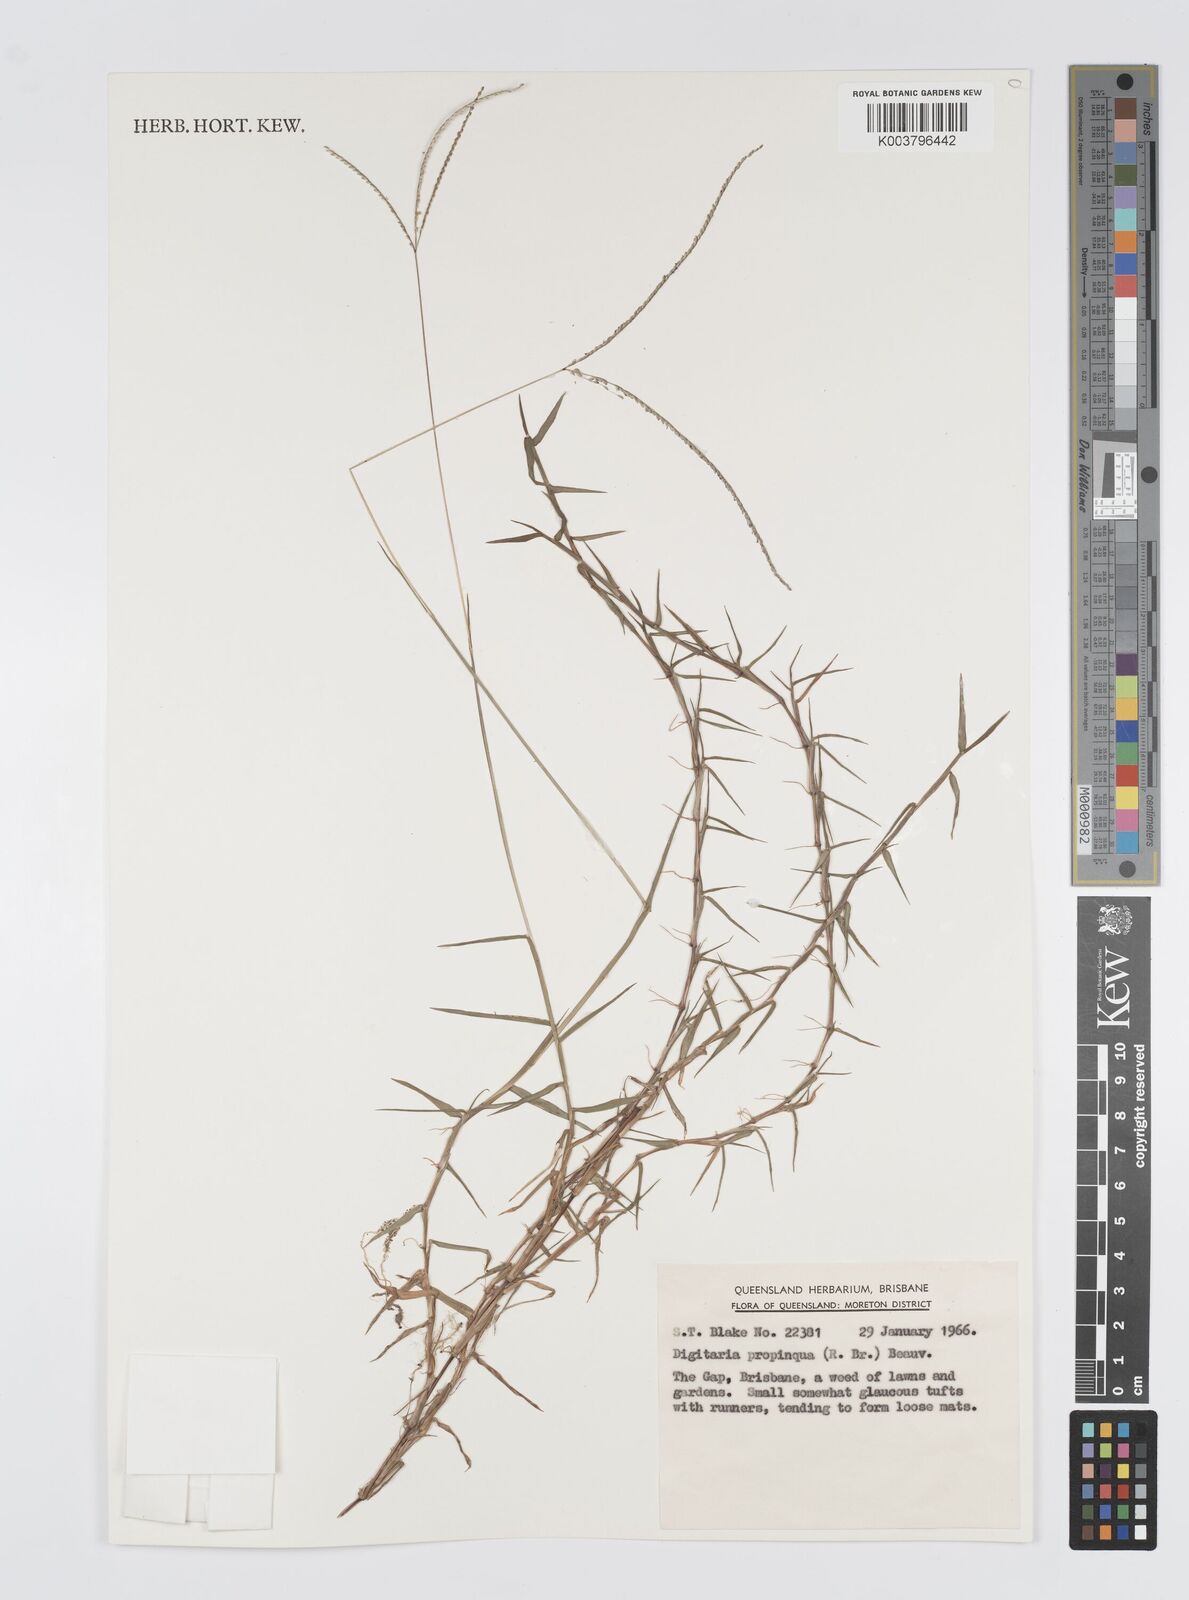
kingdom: Plantae
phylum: Tracheophyta
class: Liliopsida
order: Poales
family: Poaceae
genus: Digitaria
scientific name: Digitaria longiflora
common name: Wire crabgrass
